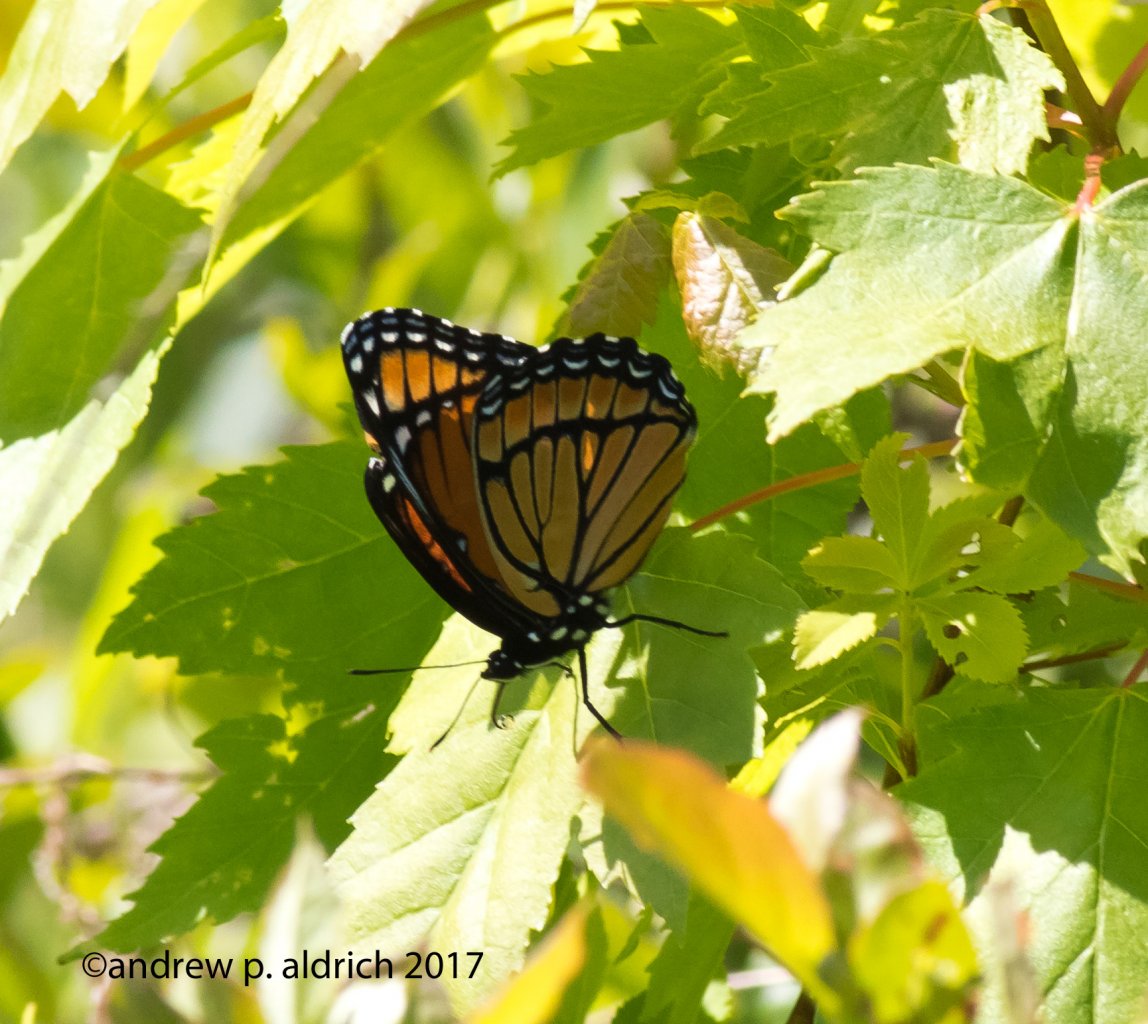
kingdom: Animalia
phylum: Arthropoda
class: Insecta
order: Lepidoptera
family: Nymphalidae
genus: Limenitis
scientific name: Limenitis archippus
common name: Viceroy
